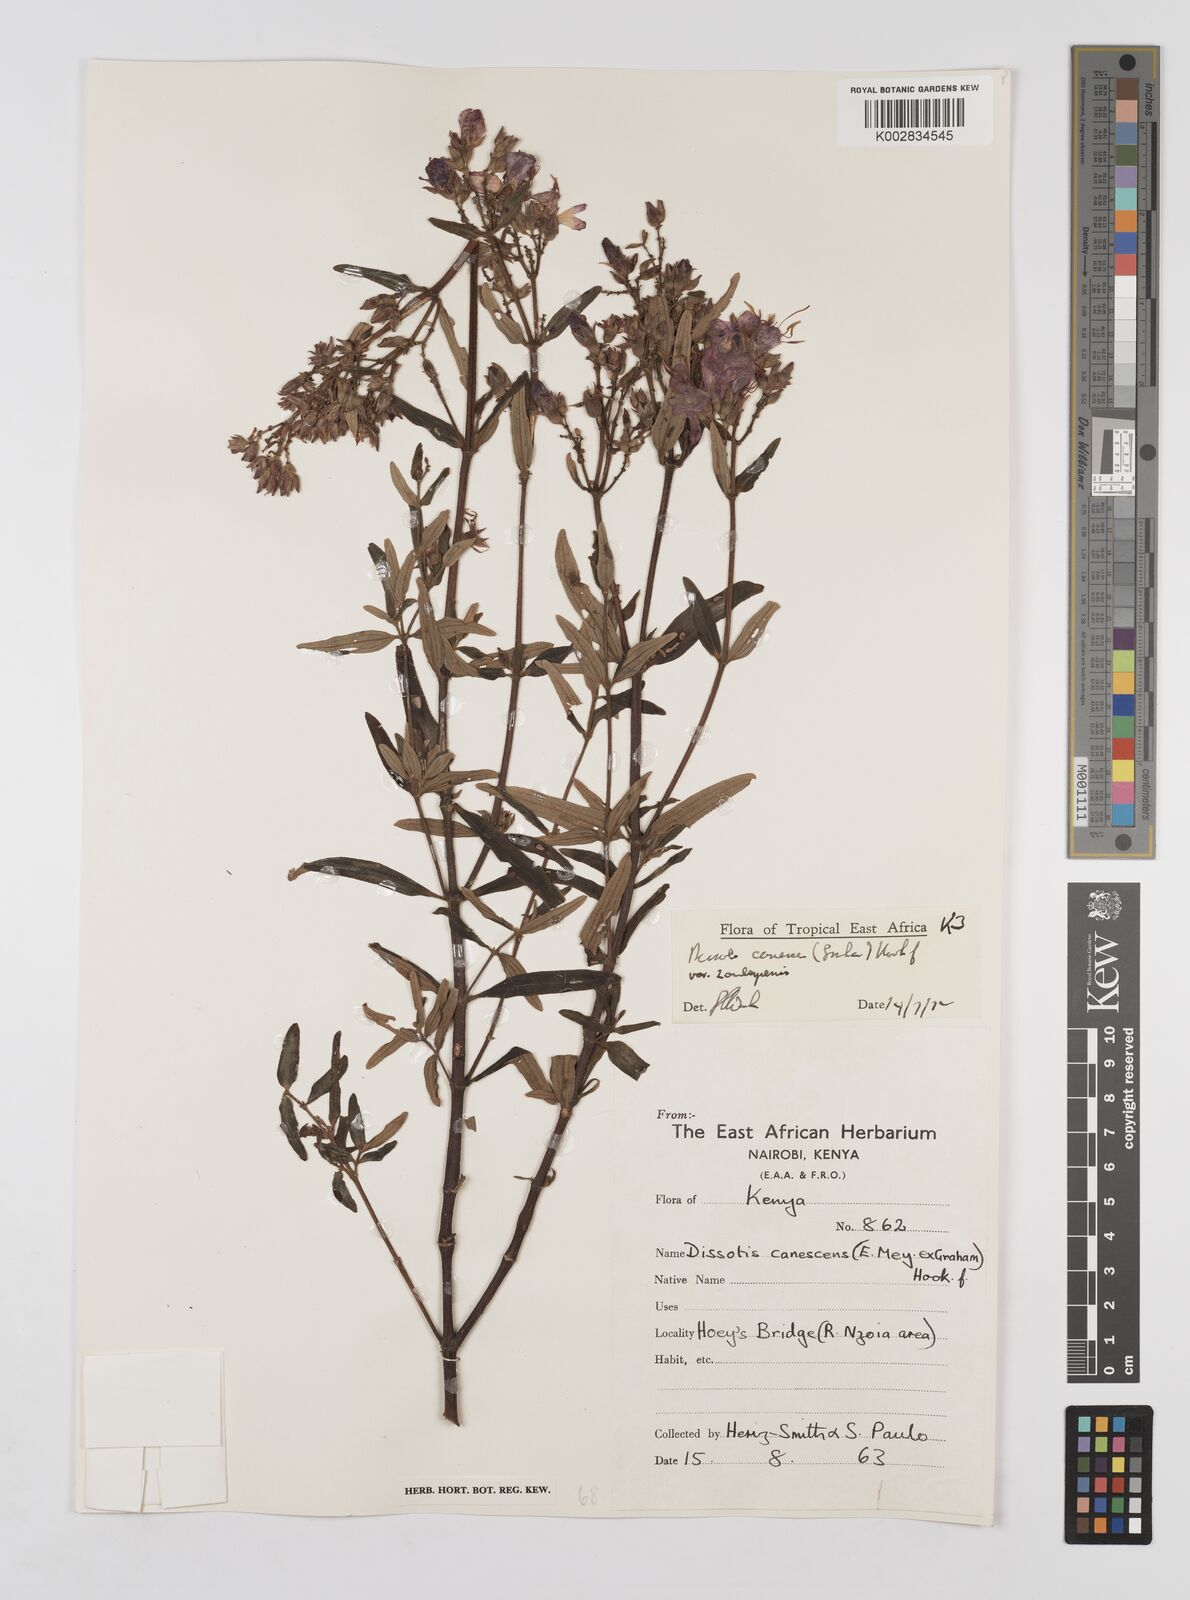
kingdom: Plantae
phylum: Tracheophyta
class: Magnoliopsida
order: Myrtales
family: Melastomataceae
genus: Argyrella
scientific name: Argyrella canescens
